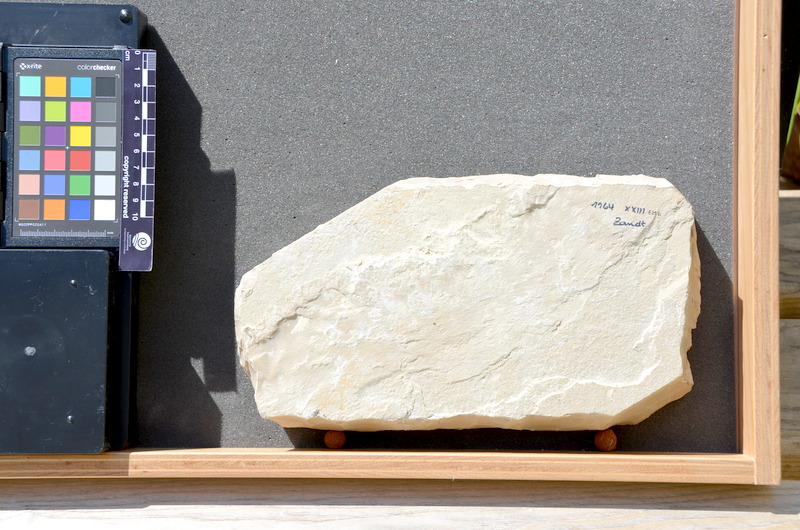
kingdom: Animalia
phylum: Chordata
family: Aspidorhynchidae
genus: Belonostomus
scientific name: Belonostomus
